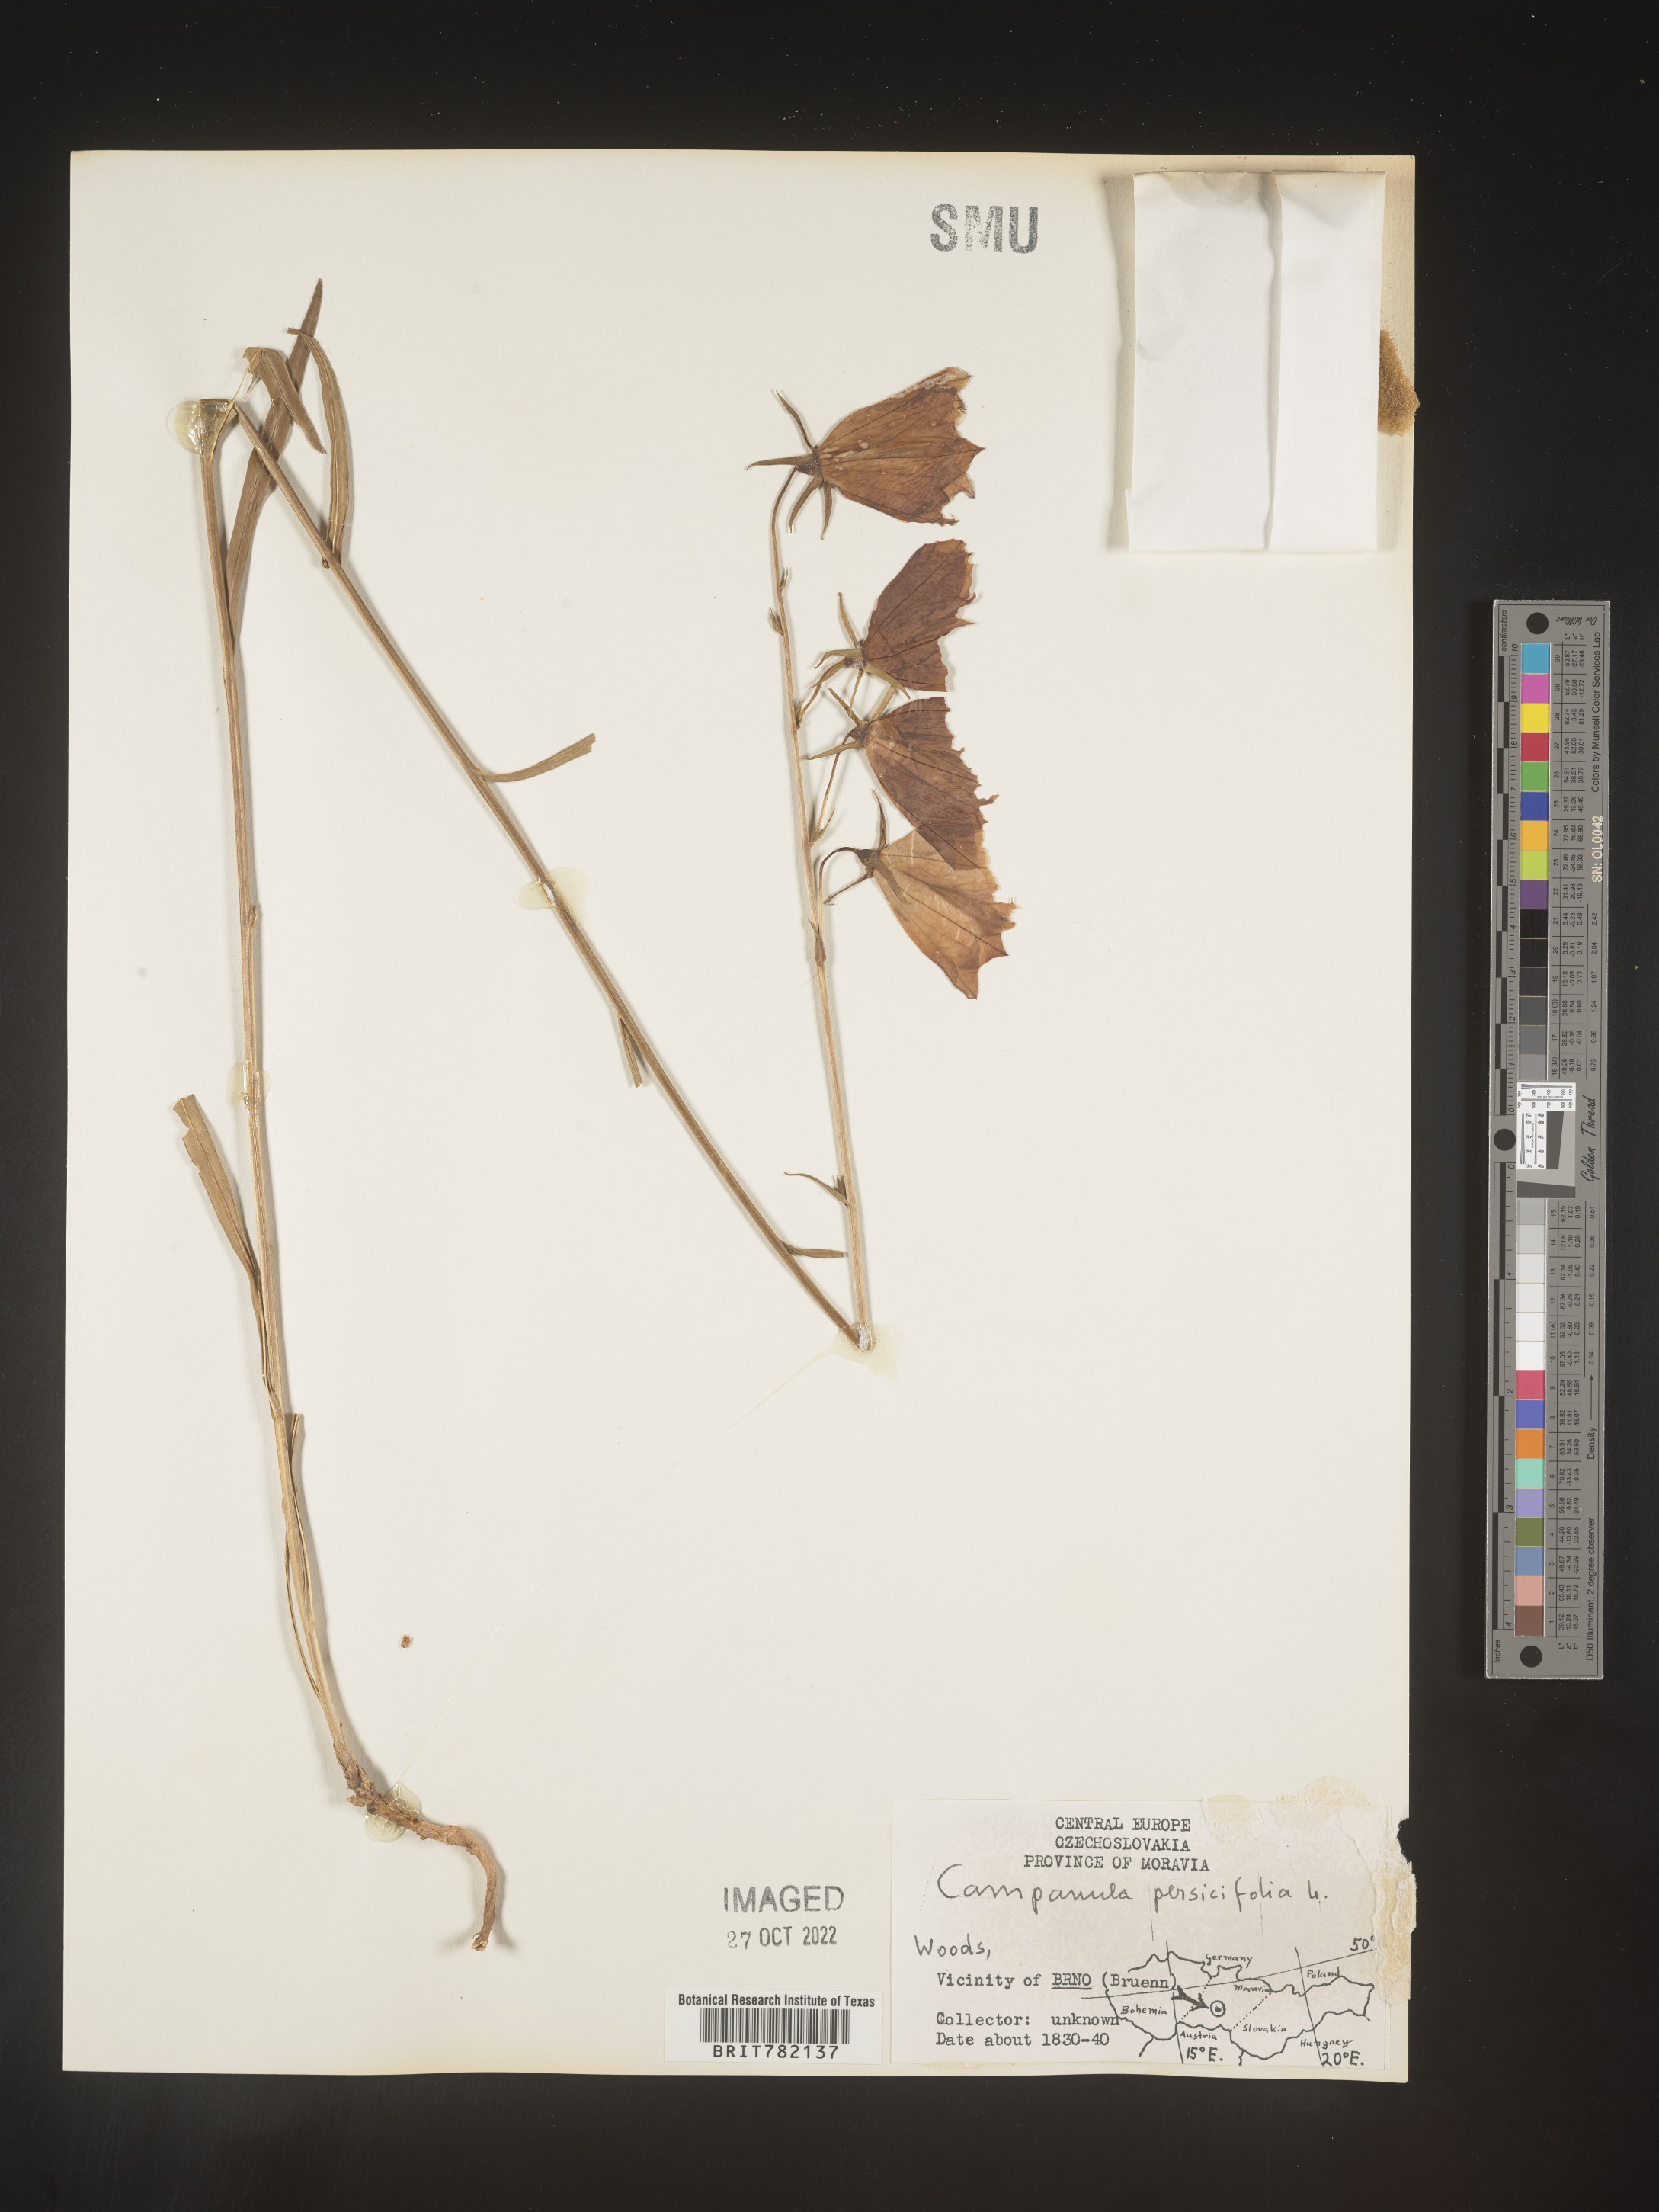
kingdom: Plantae
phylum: Tracheophyta
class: Magnoliopsida
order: Asterales
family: Campanulaceae
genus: Campanula
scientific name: Campanula
